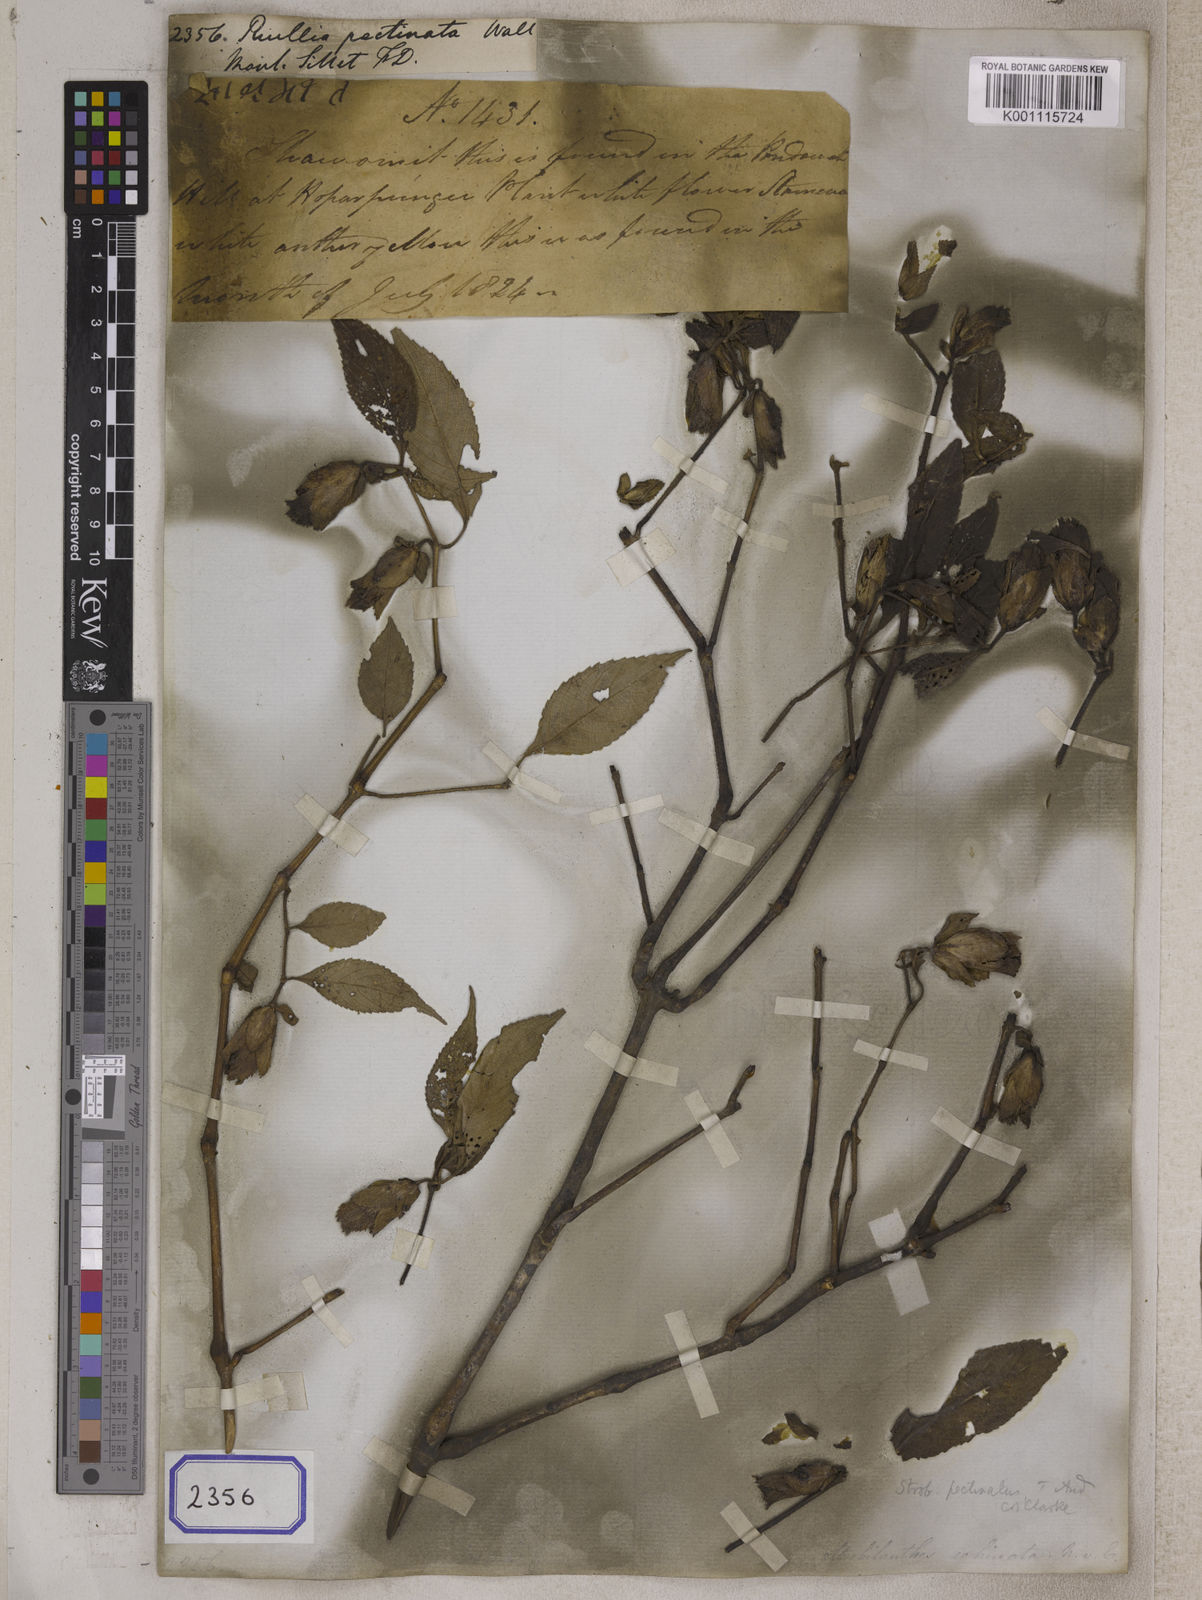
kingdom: Plantae
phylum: Tracheophyta
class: Magnoliopsida
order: Lamiales
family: Acanthaceae
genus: Strobilanthes
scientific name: Strobilanthes echinata
